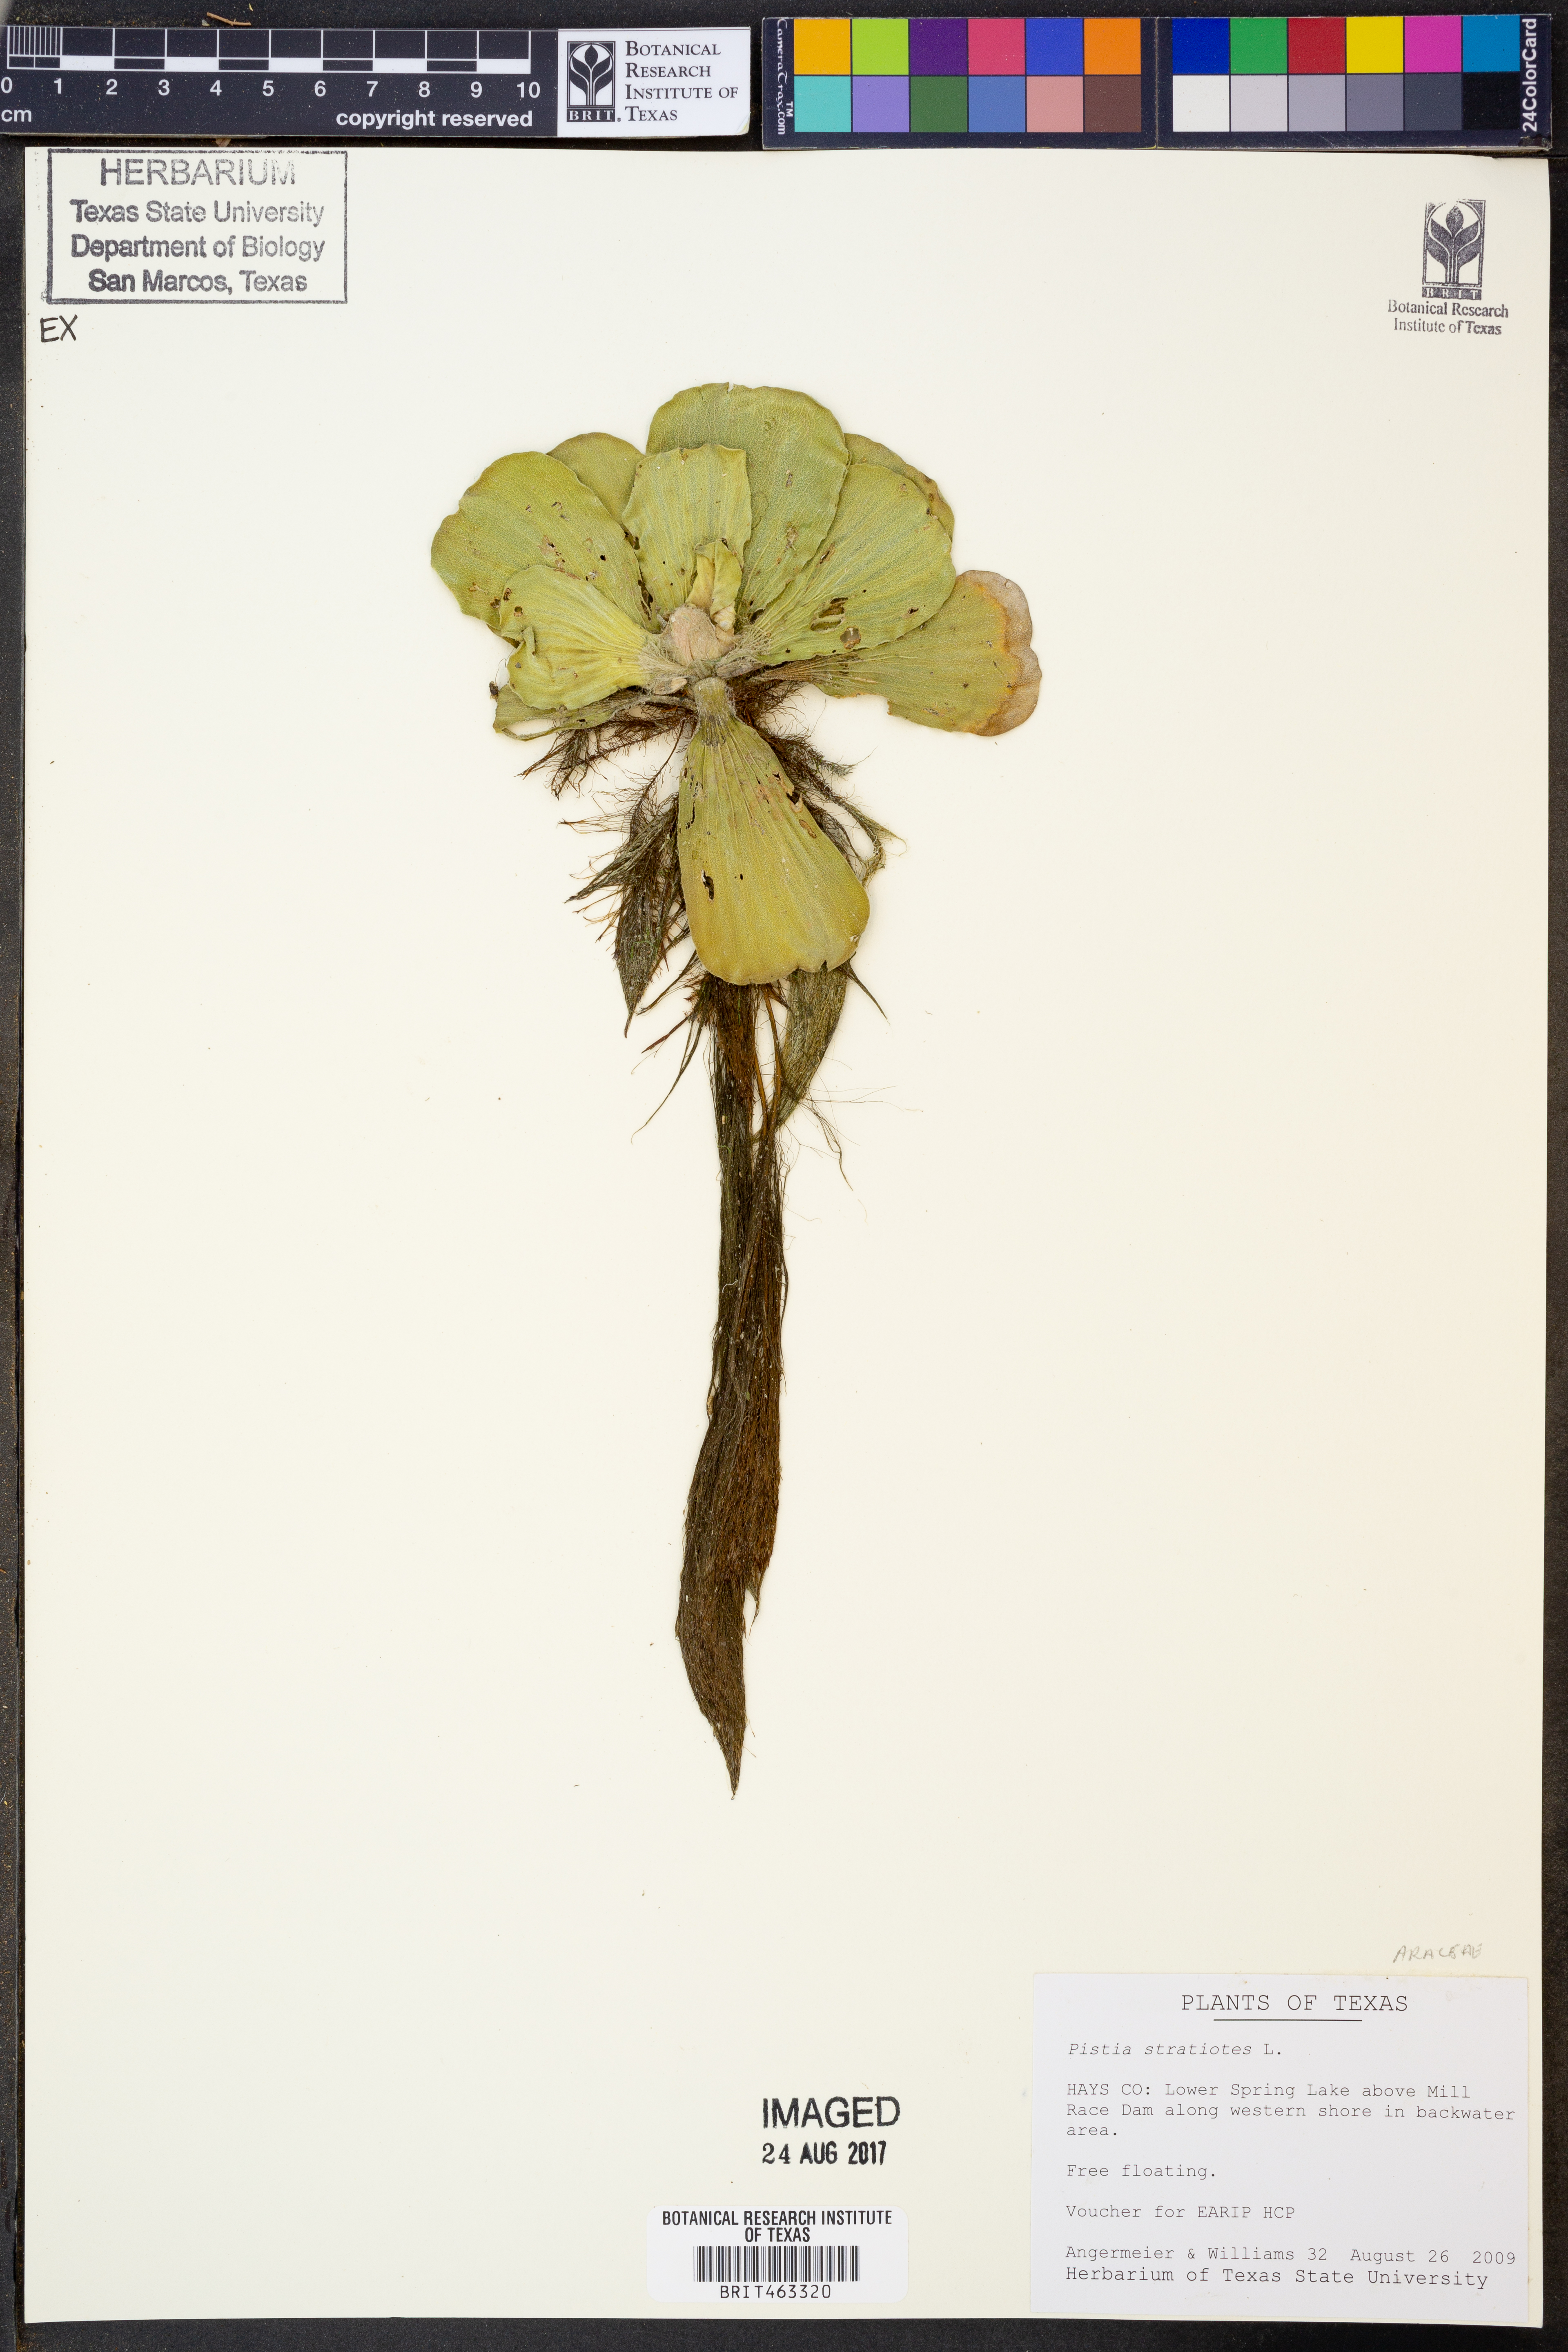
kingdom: Plantae
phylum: Tracheophyta
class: Liliopsida
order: Alismatales
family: Araceae
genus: Pistia
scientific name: Pistia stratiotes
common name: Water lettuce
